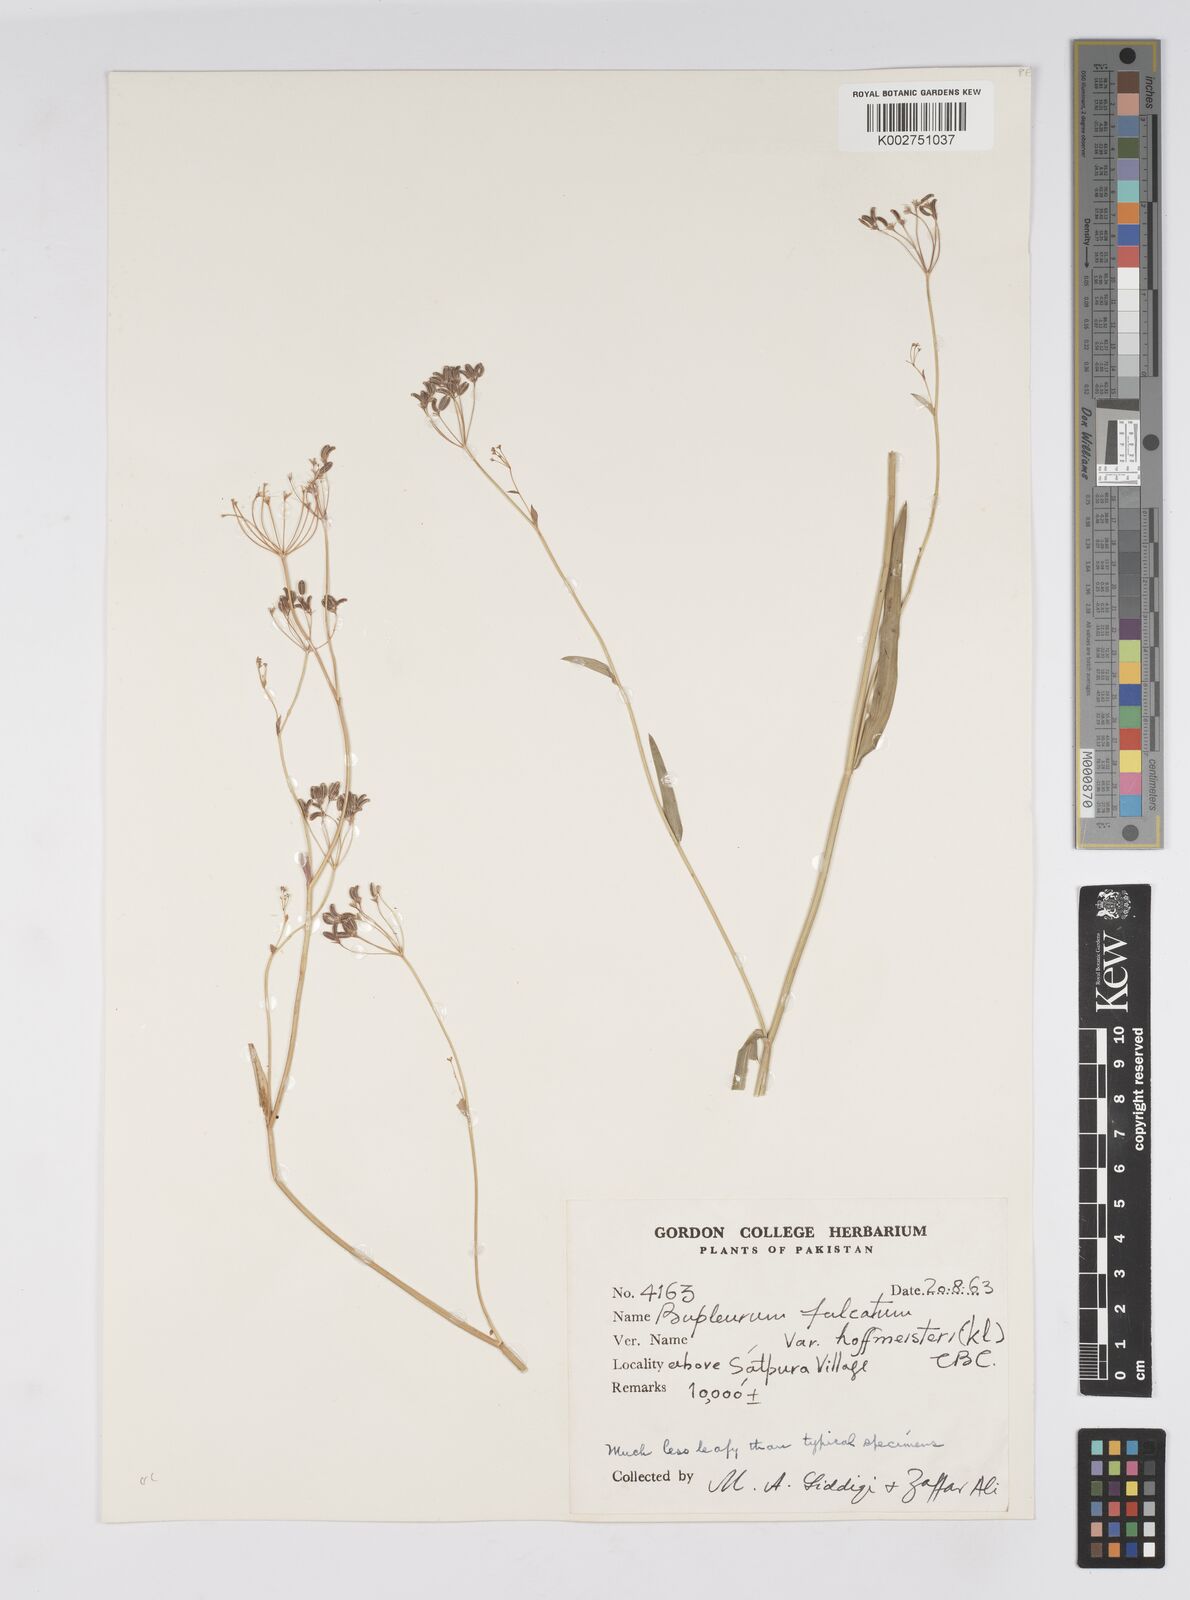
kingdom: Plantae
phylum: Tracheophyta
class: Magnoliopsida
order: Apiales
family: Apiaceae
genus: Bupleurum
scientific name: Bupleurum falcatum
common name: Sickle-leaved hare's-ear
